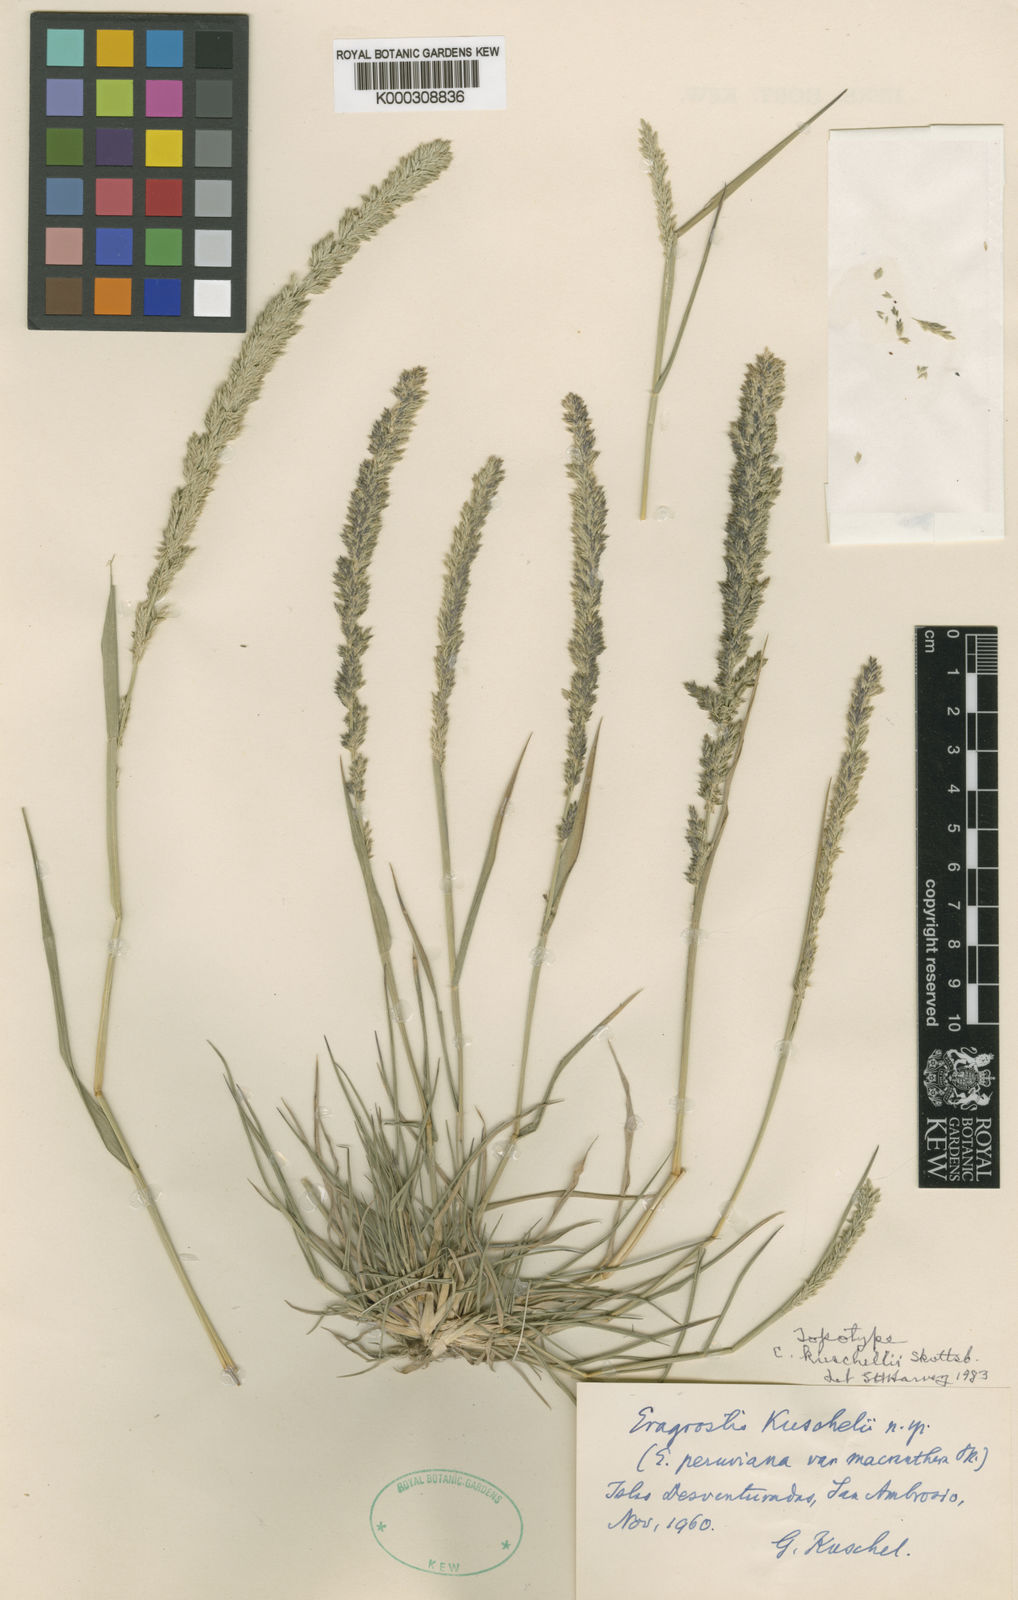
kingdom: Plantae
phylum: Tracheophyta
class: Liliopsida
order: Poales
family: Poaceae
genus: Eragrostis
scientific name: Eragrostis kuschelii
